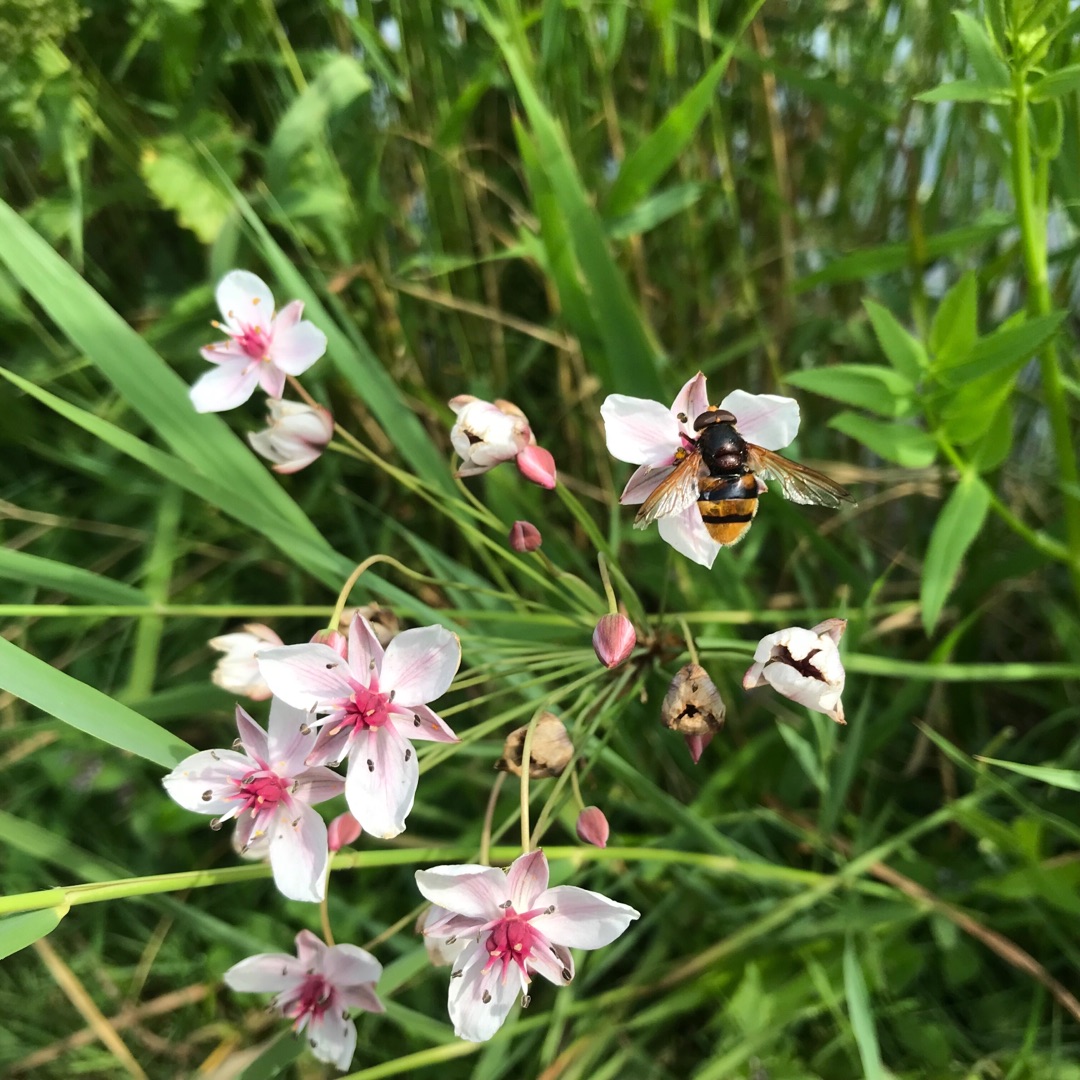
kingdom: Animalia
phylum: Arthropoda
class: Insecta
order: Diptera
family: Syrphidae
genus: Volucella
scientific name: Volucella zonaria
